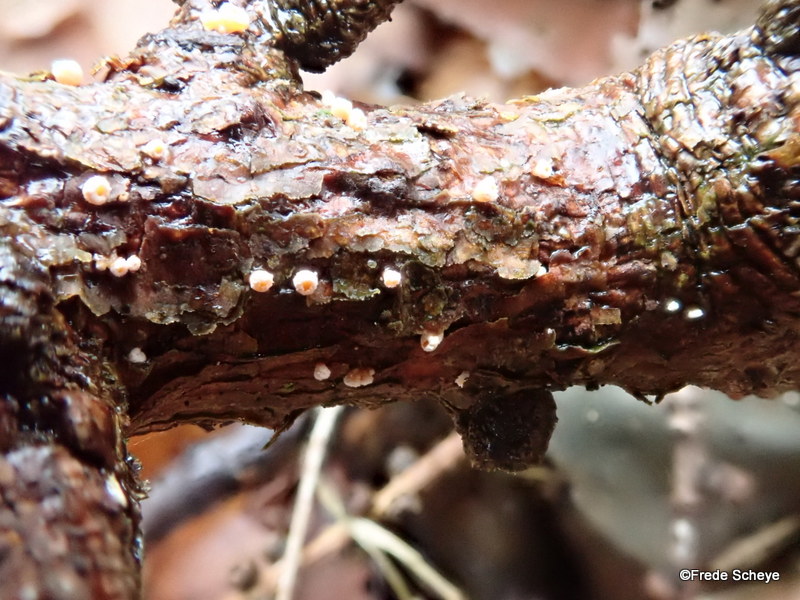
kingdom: Fungi
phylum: Ascomycota
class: Leotiomycetes
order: Helotiales
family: Lachnaceae
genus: Lachnellula
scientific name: Lachnellula occidentalis
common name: Larch disco
